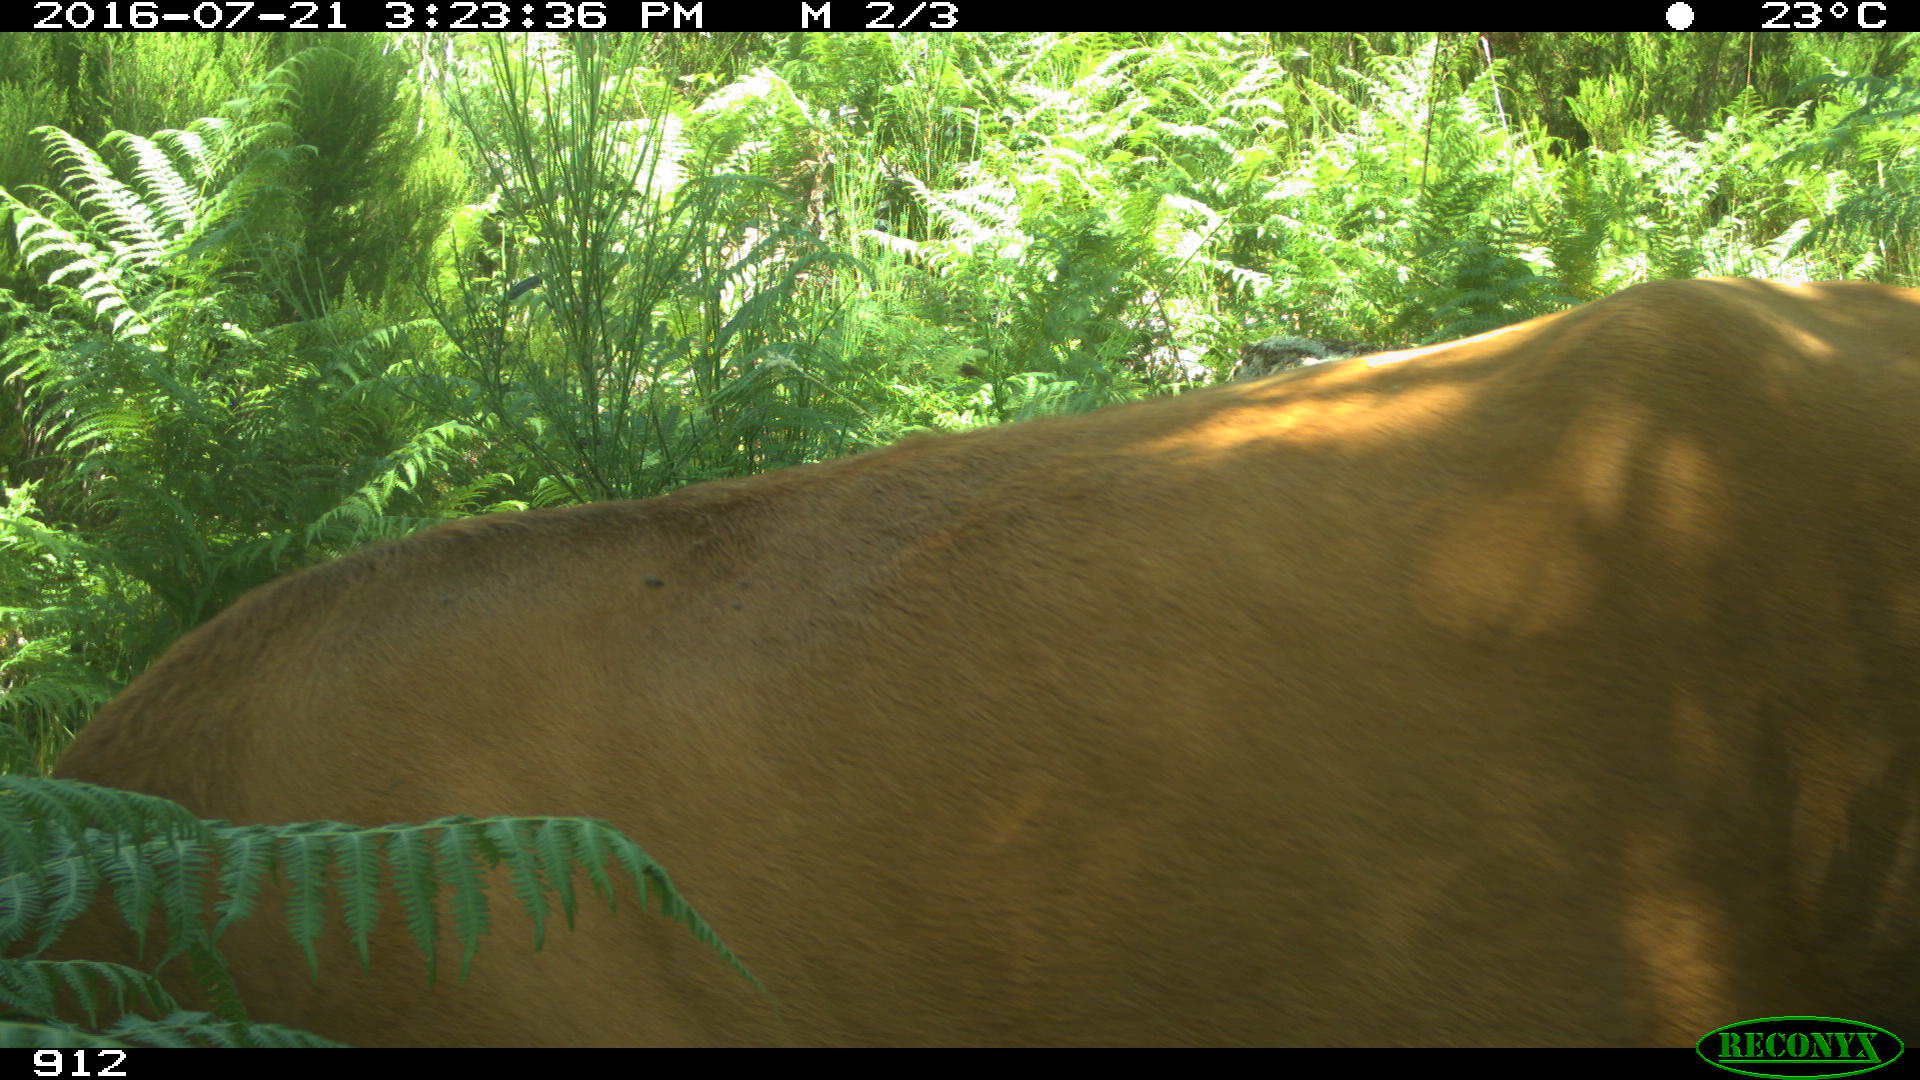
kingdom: Animalia
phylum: Chordata
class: Mammalia
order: Artiodactyla
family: Bovidae
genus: Bos
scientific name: Bos taurus
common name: Domesticated cattle
